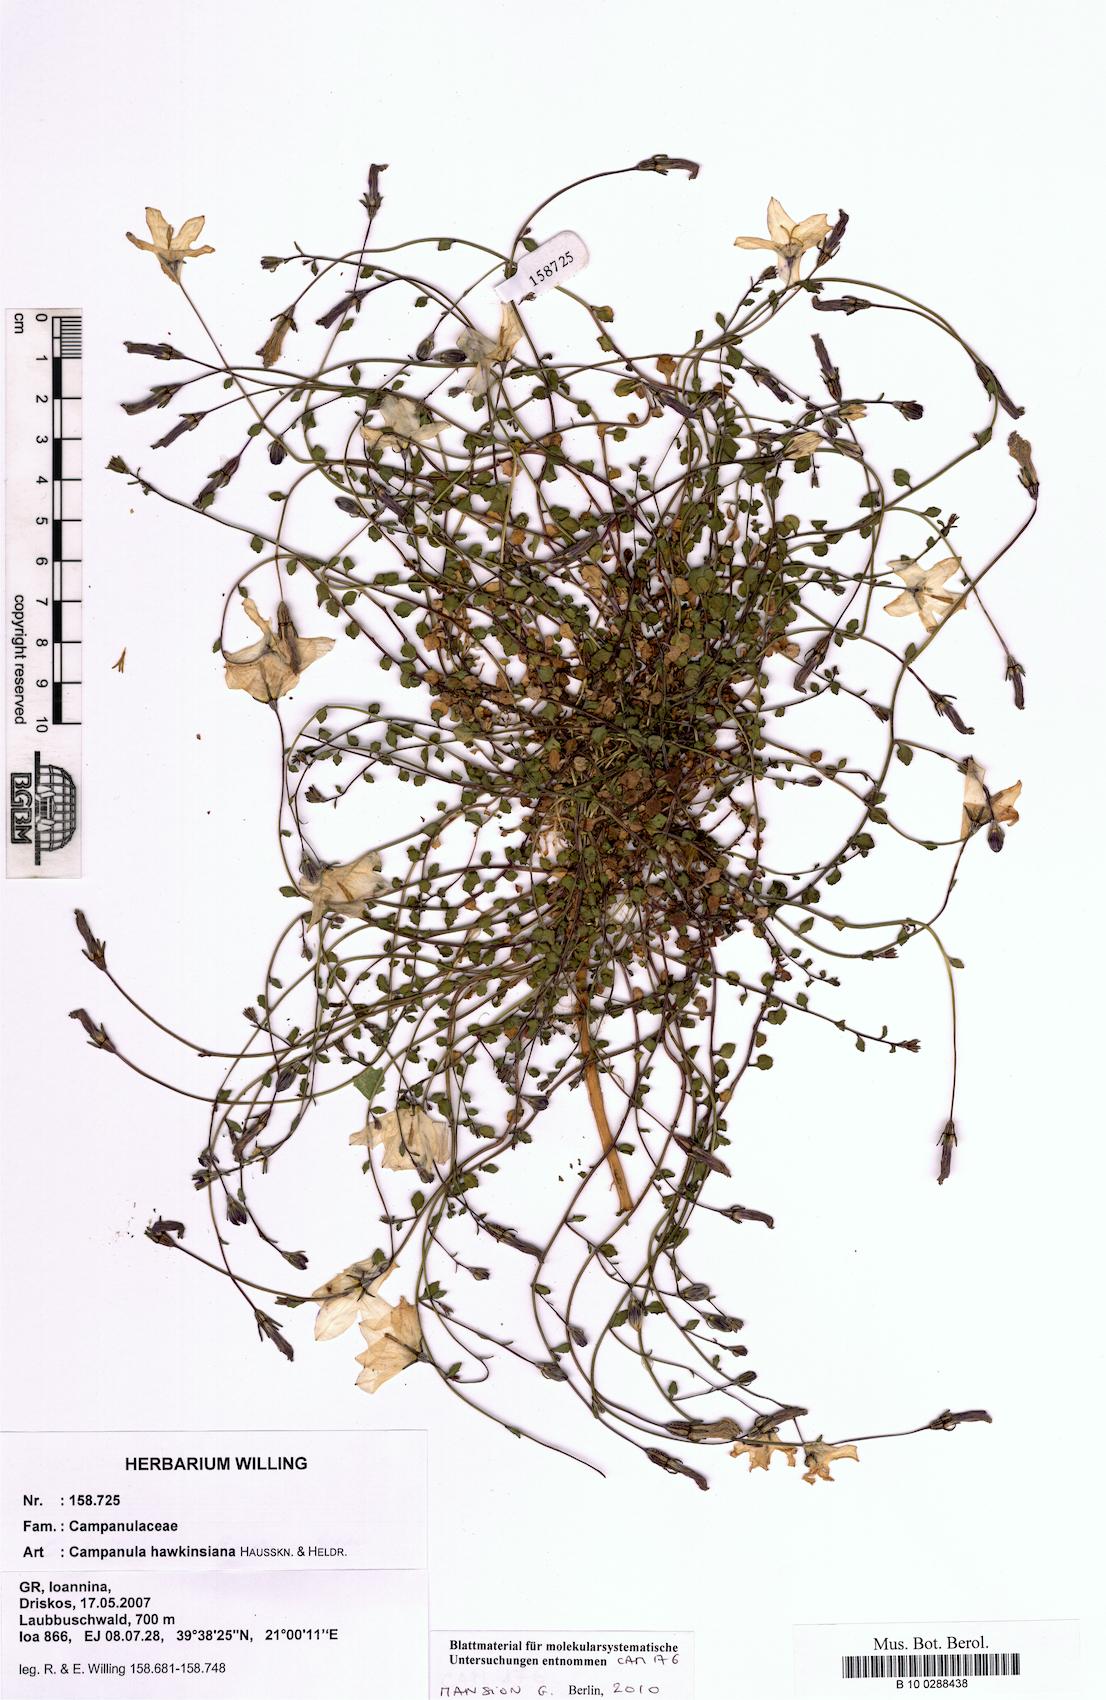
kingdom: Plantae
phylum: Tracheophyta
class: Magnoliopsida
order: Asterales
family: Campanulaceae
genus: Campanula
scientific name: Campanula hawkinsiana
